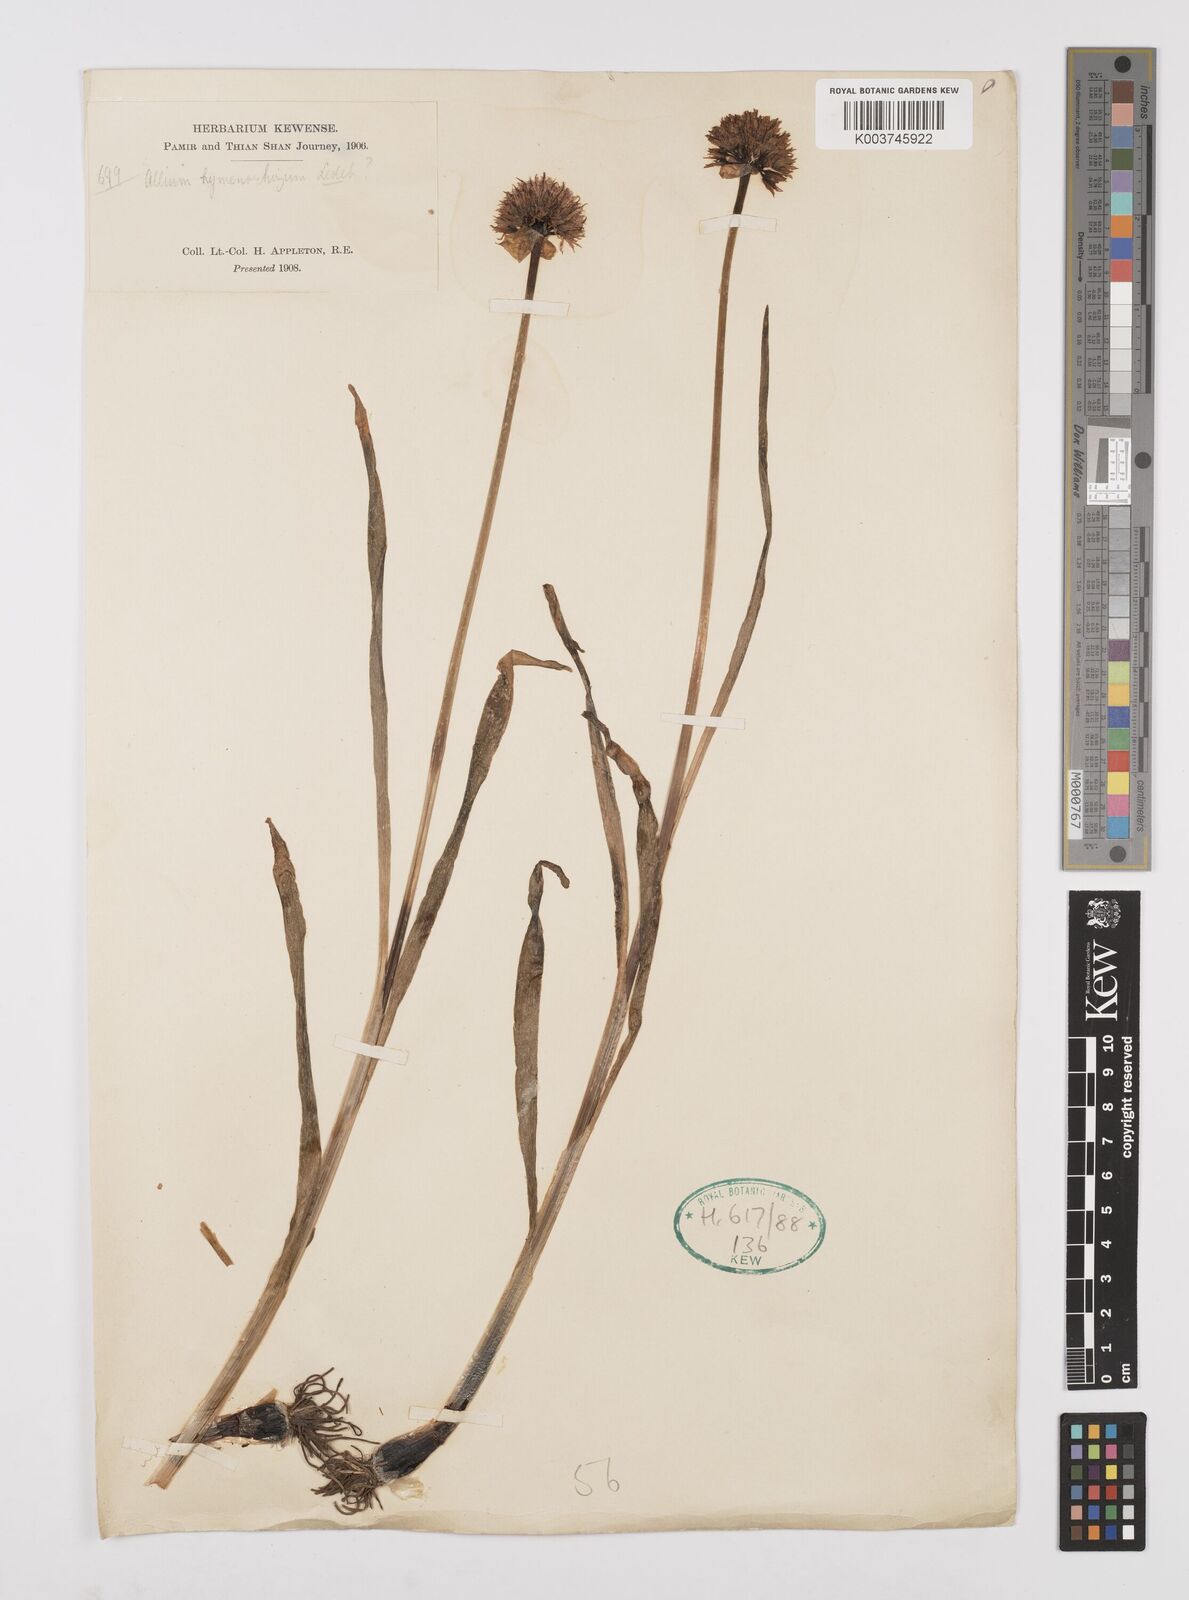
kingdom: Plantae
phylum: Tracheophyta
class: Liliopsida
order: Asparagales
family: Amaryllidaceae
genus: Allium
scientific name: Allium hymenorhizum
